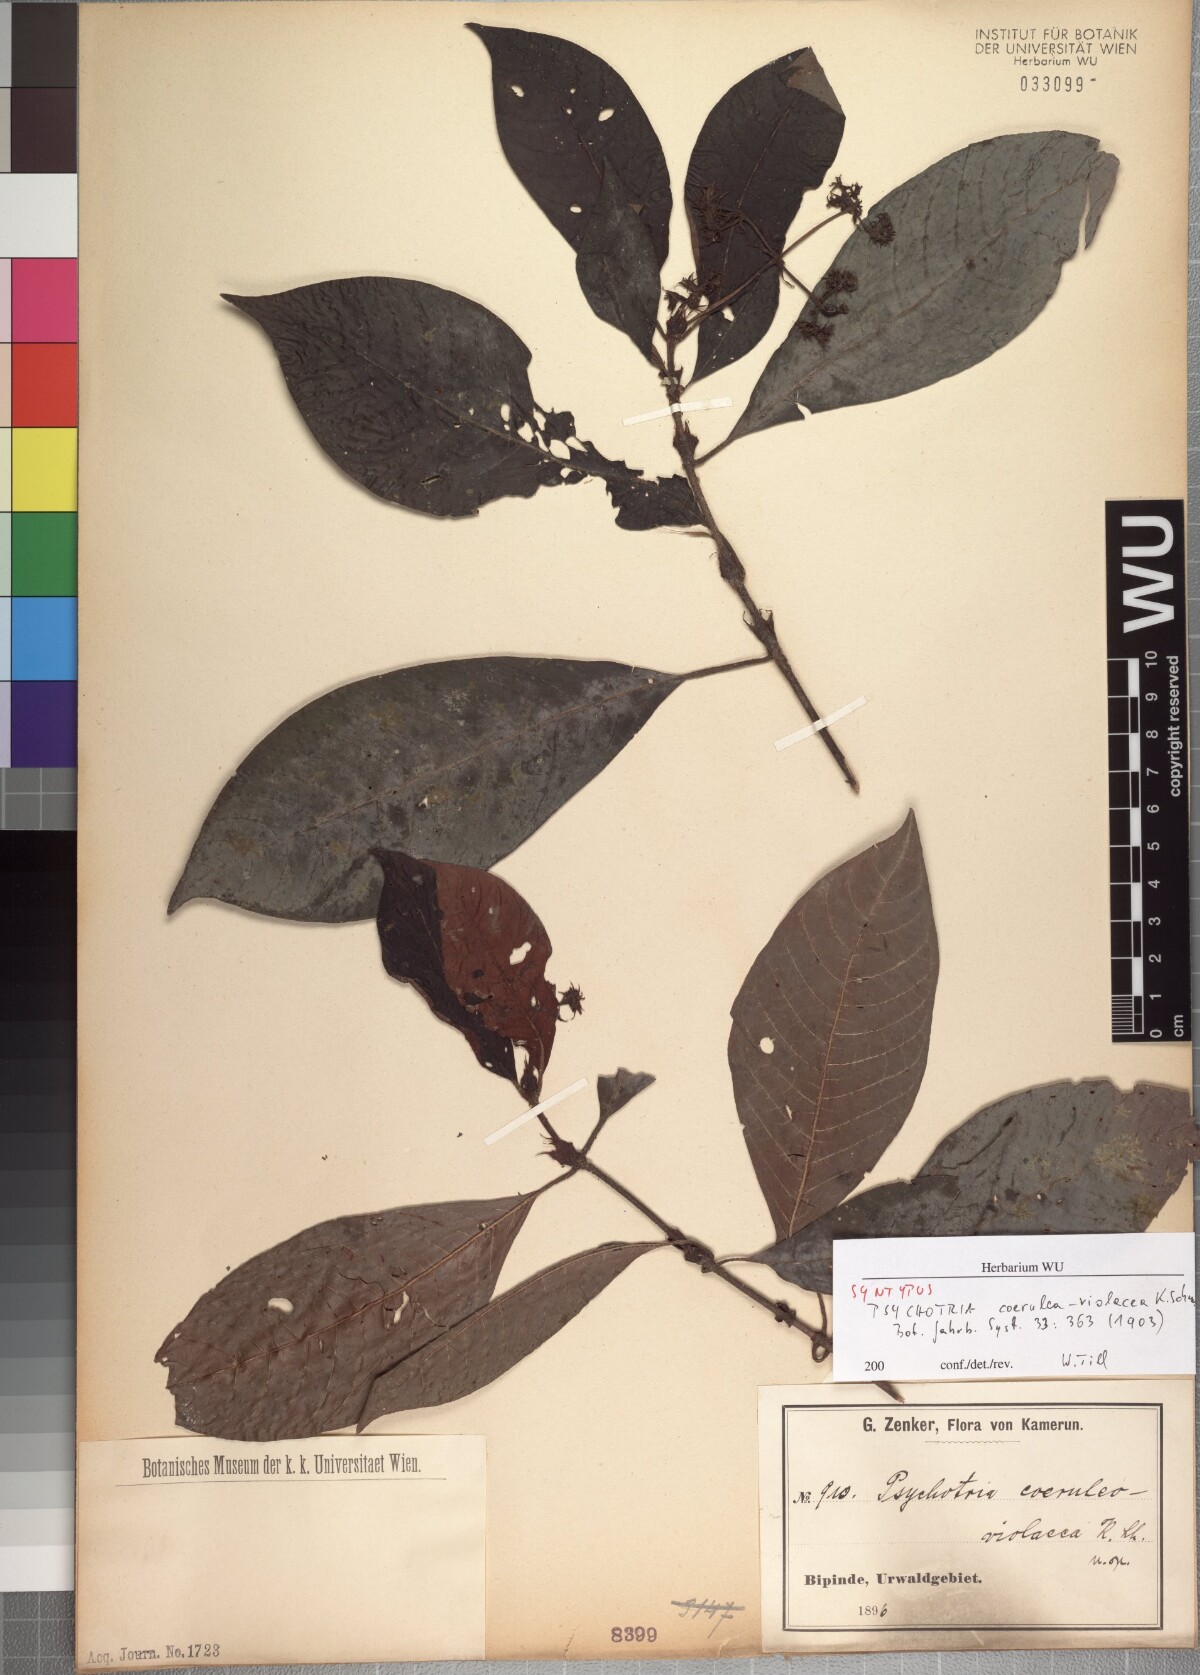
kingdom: Plantae
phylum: Tracheophyta
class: Magnoliopsida
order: Gentianales
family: Rubiaceae
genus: Psychotria
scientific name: Psychotria coeruleo-violacea
